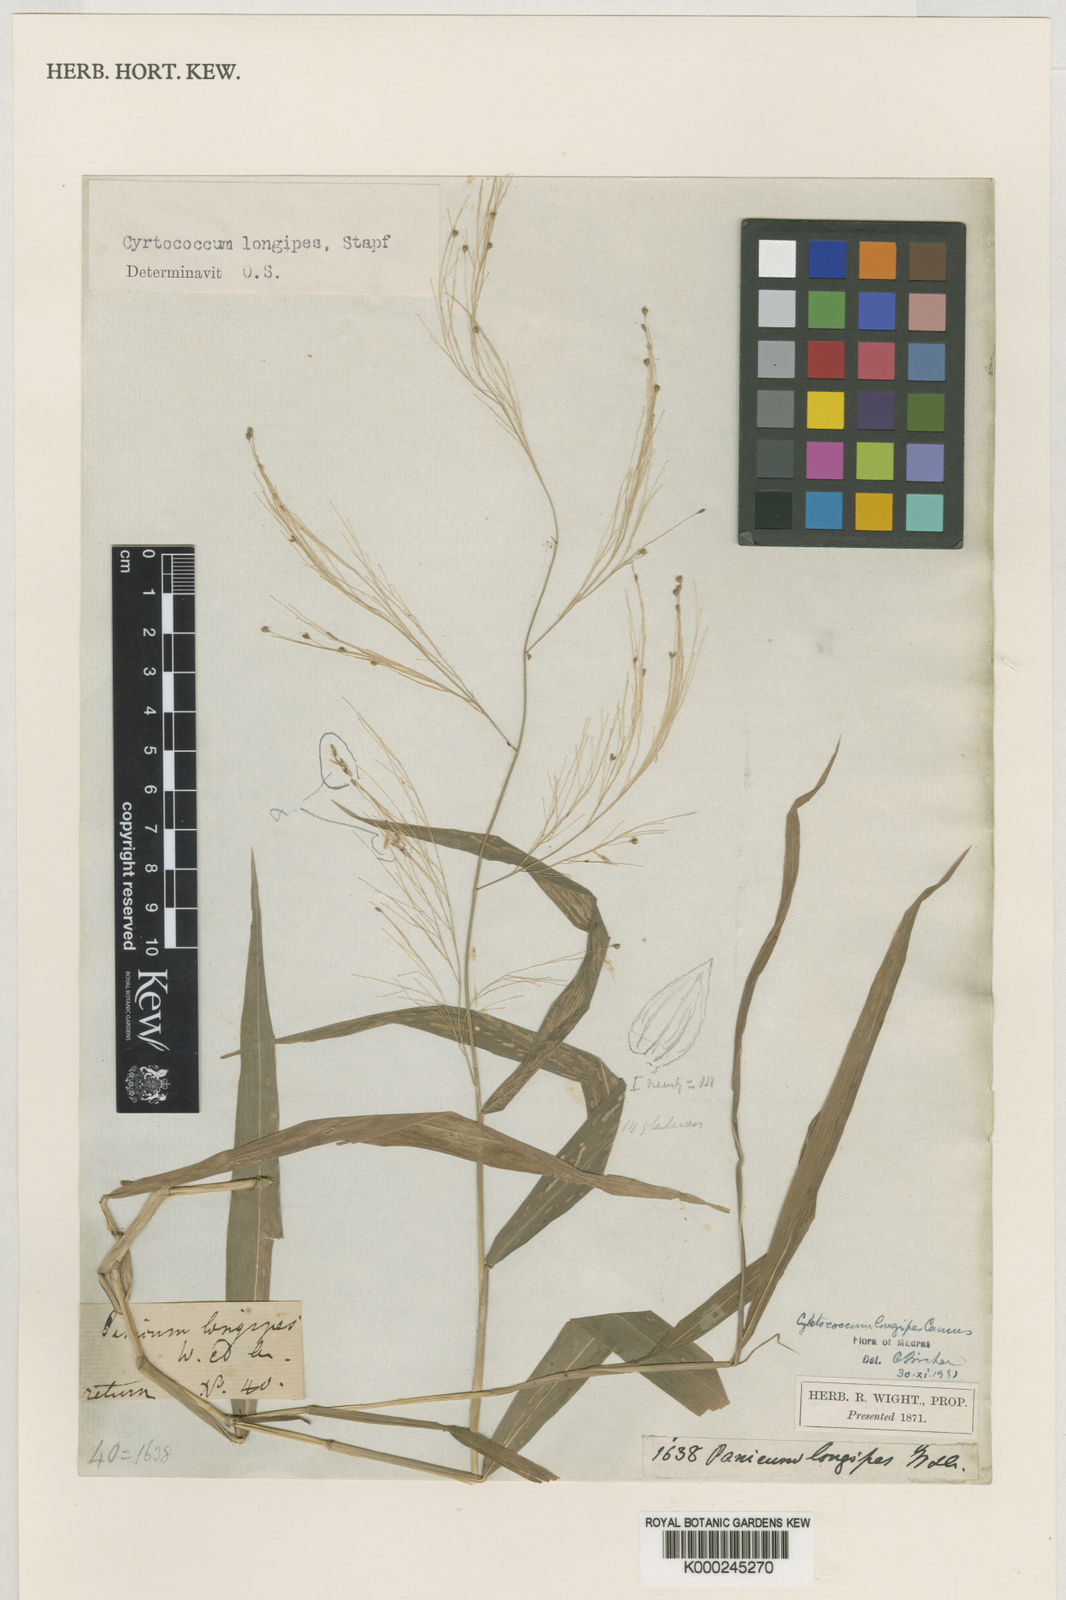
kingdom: Plantae
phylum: Tracheophyta
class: Liliopsida
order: Poales
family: Poaceae
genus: Cyrtococcum
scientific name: Cyrtococcum longipes
